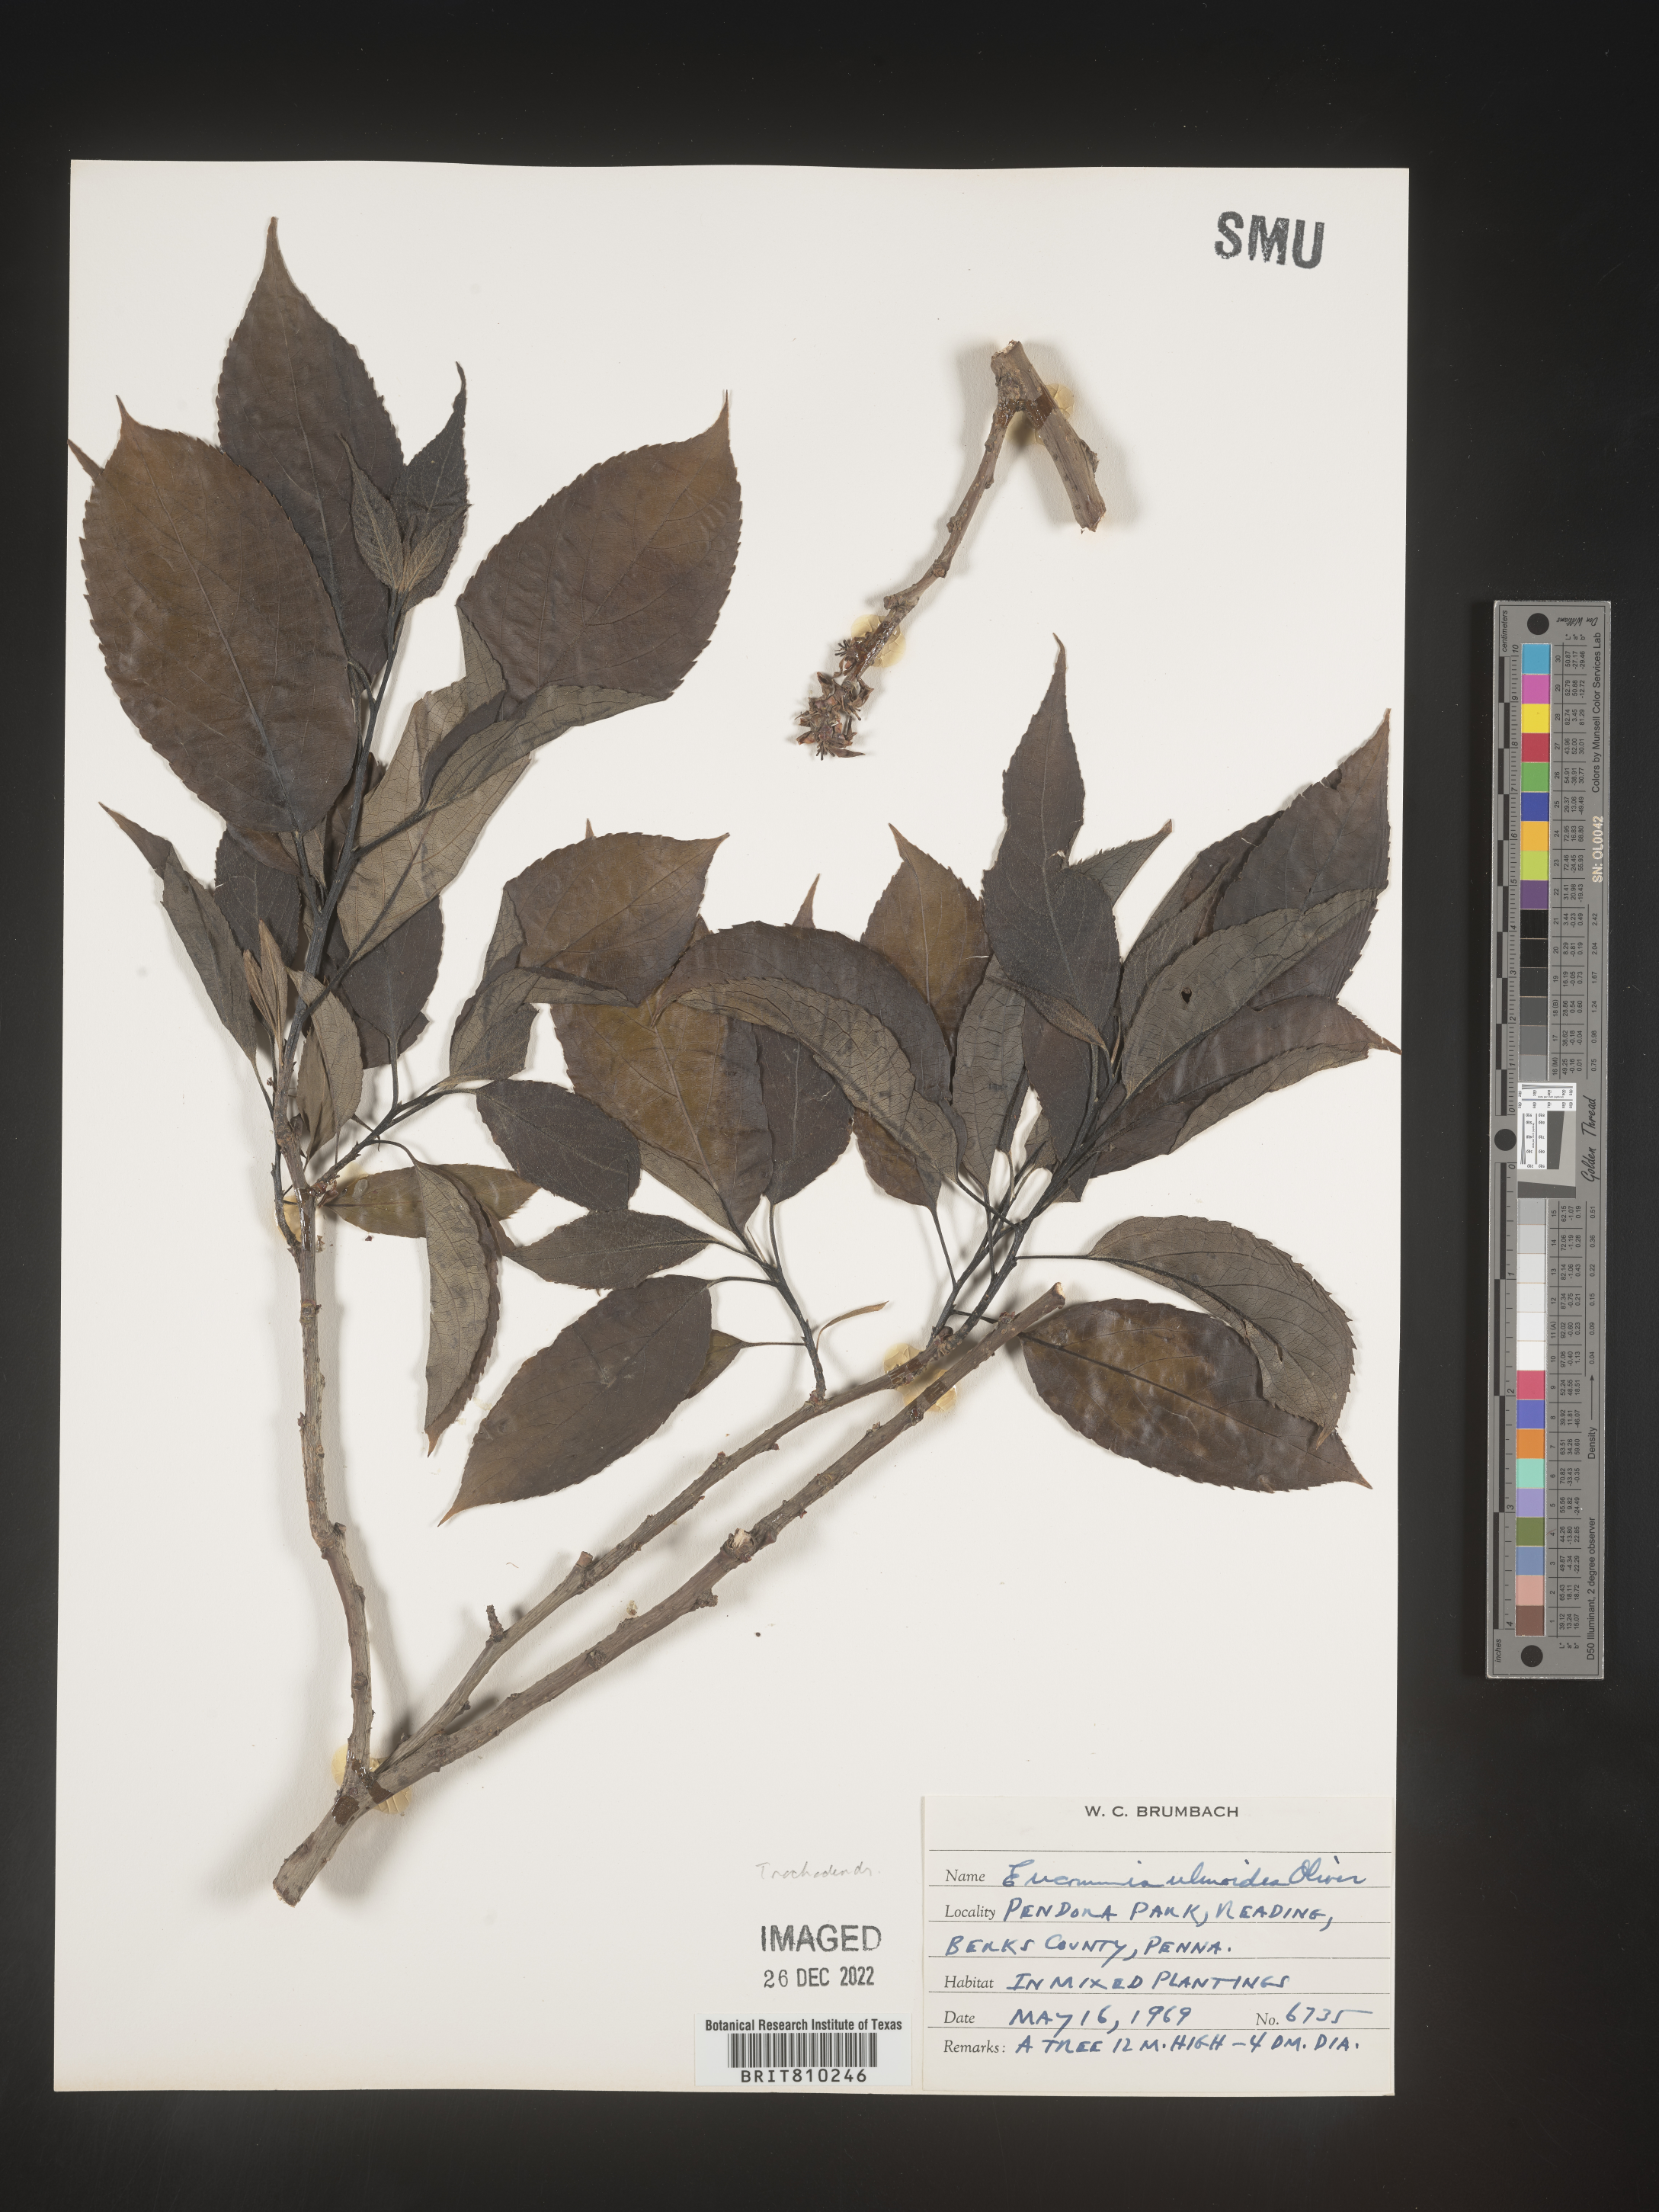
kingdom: Plantae
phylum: Tracheophyta
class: Magnoliopsida
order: Garryales
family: Eucommiaceae
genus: Eucommia
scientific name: Eucommia
